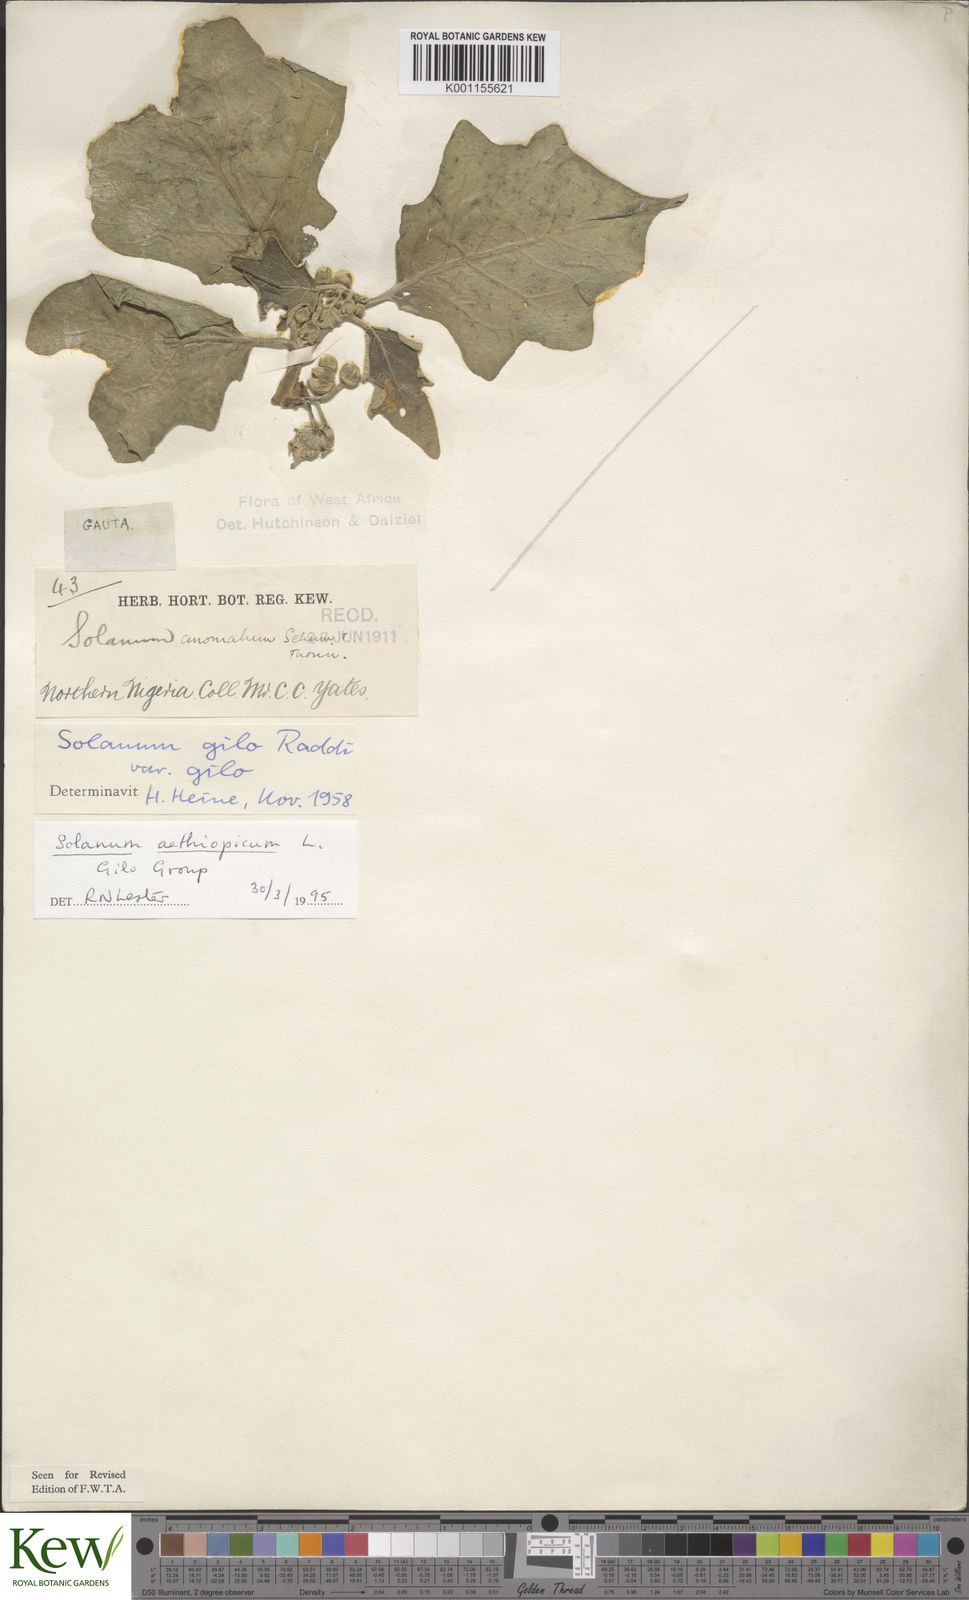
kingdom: Plantae
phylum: Tracheophyta
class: Magnoliopsida
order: Solanales
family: Solanaceae
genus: Solanum
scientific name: Solanum aethiopicum
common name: Gilo
